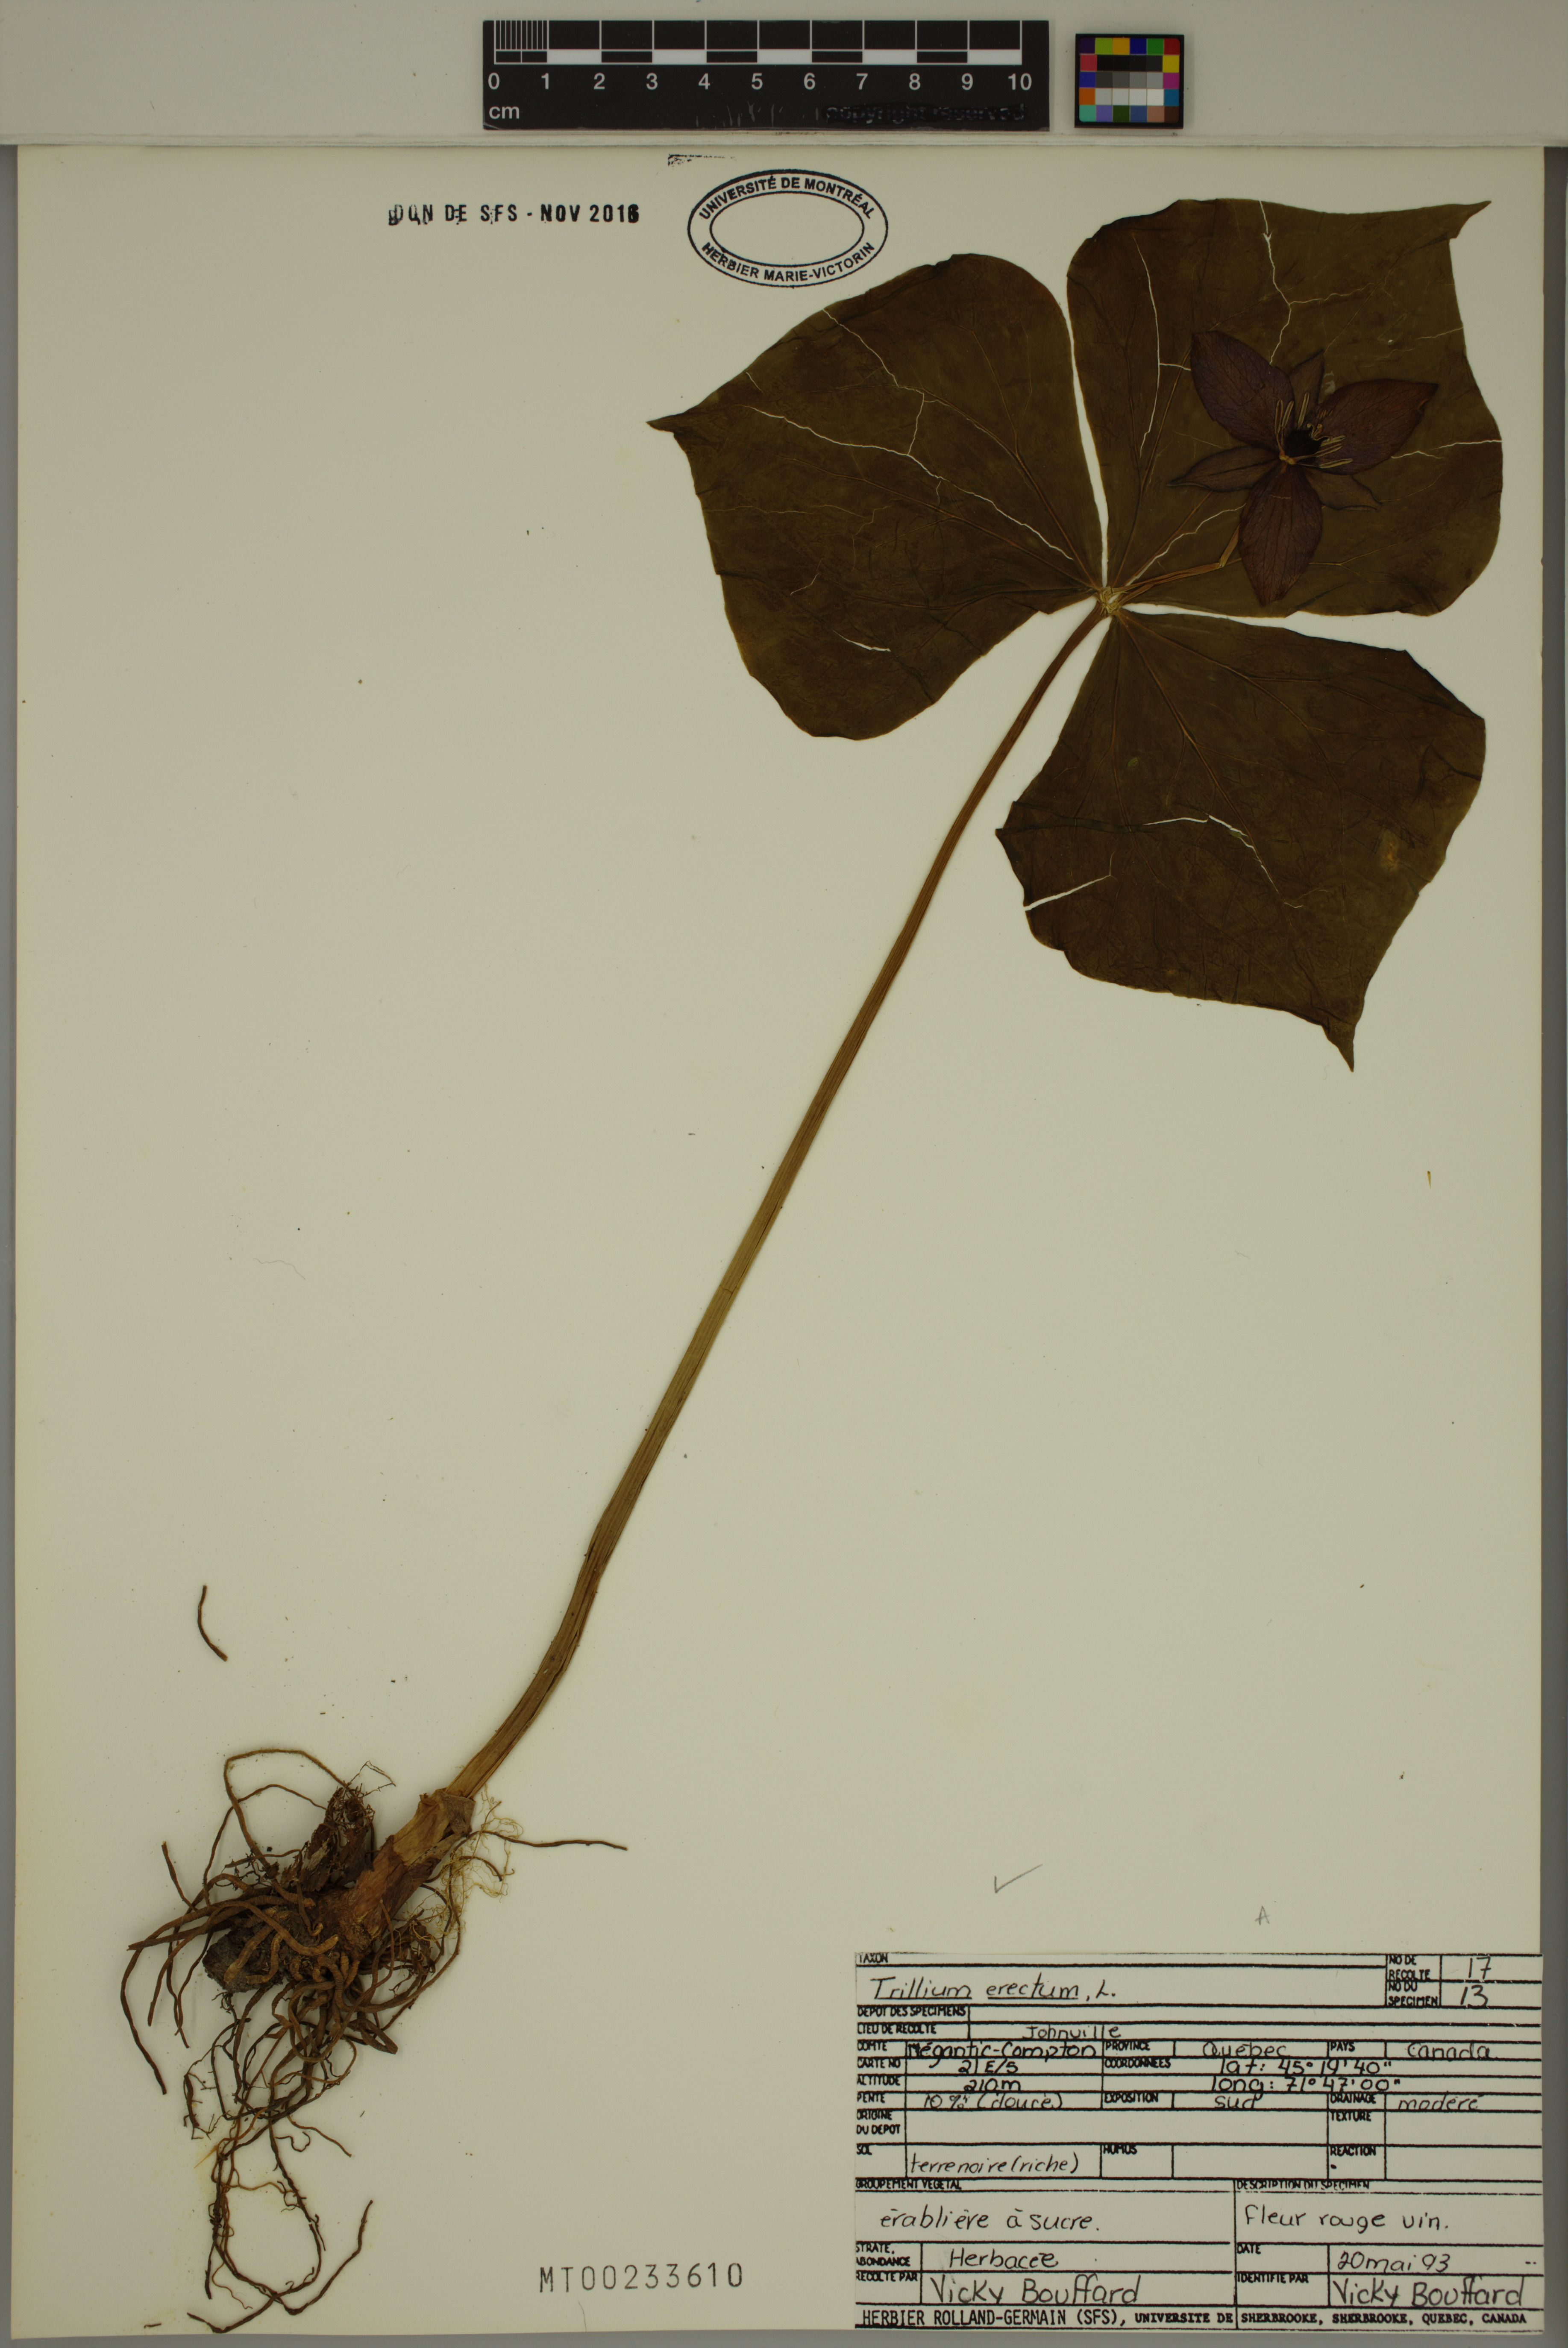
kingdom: Plantae
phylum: Tracheophyta
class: Liliopsida
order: Liliales
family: Melanthiaceae
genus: Trillium
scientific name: Trillium erectum
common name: Purple trillium
